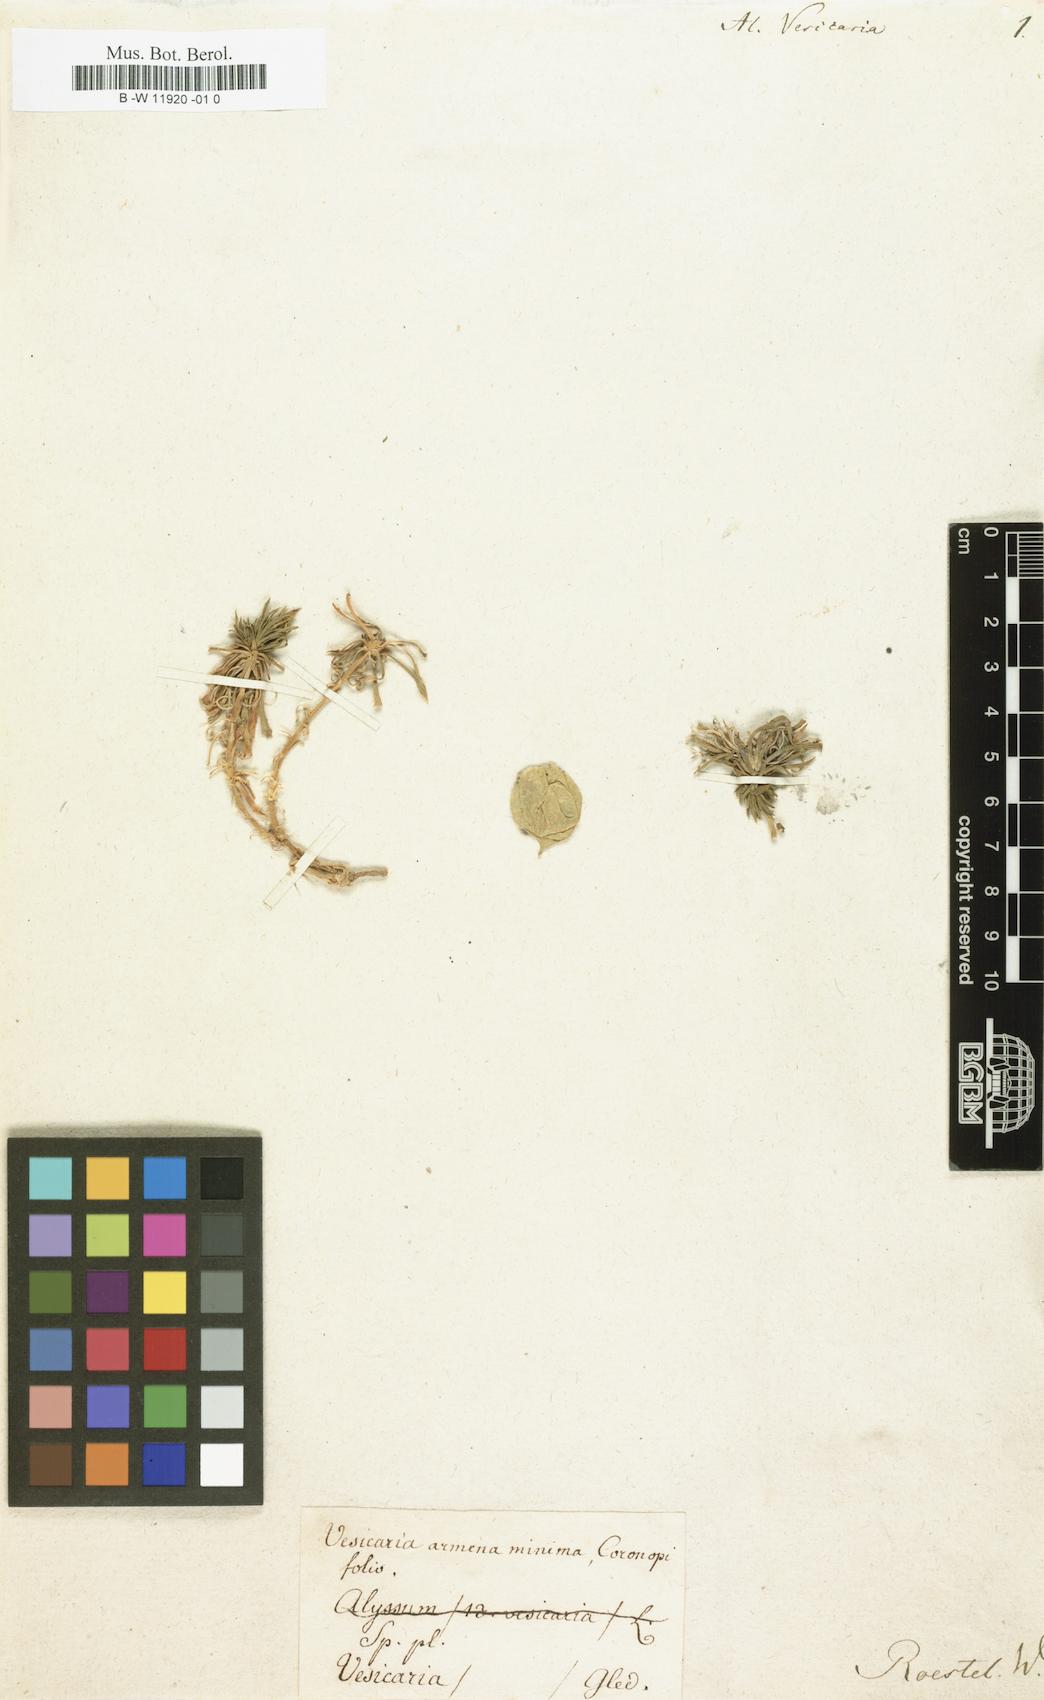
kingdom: Plantae
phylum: Tracheophyta
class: Magnoliopsida
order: Brassicales
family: Brassicaceae
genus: Noccaea
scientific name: Noccaea vesicaria
